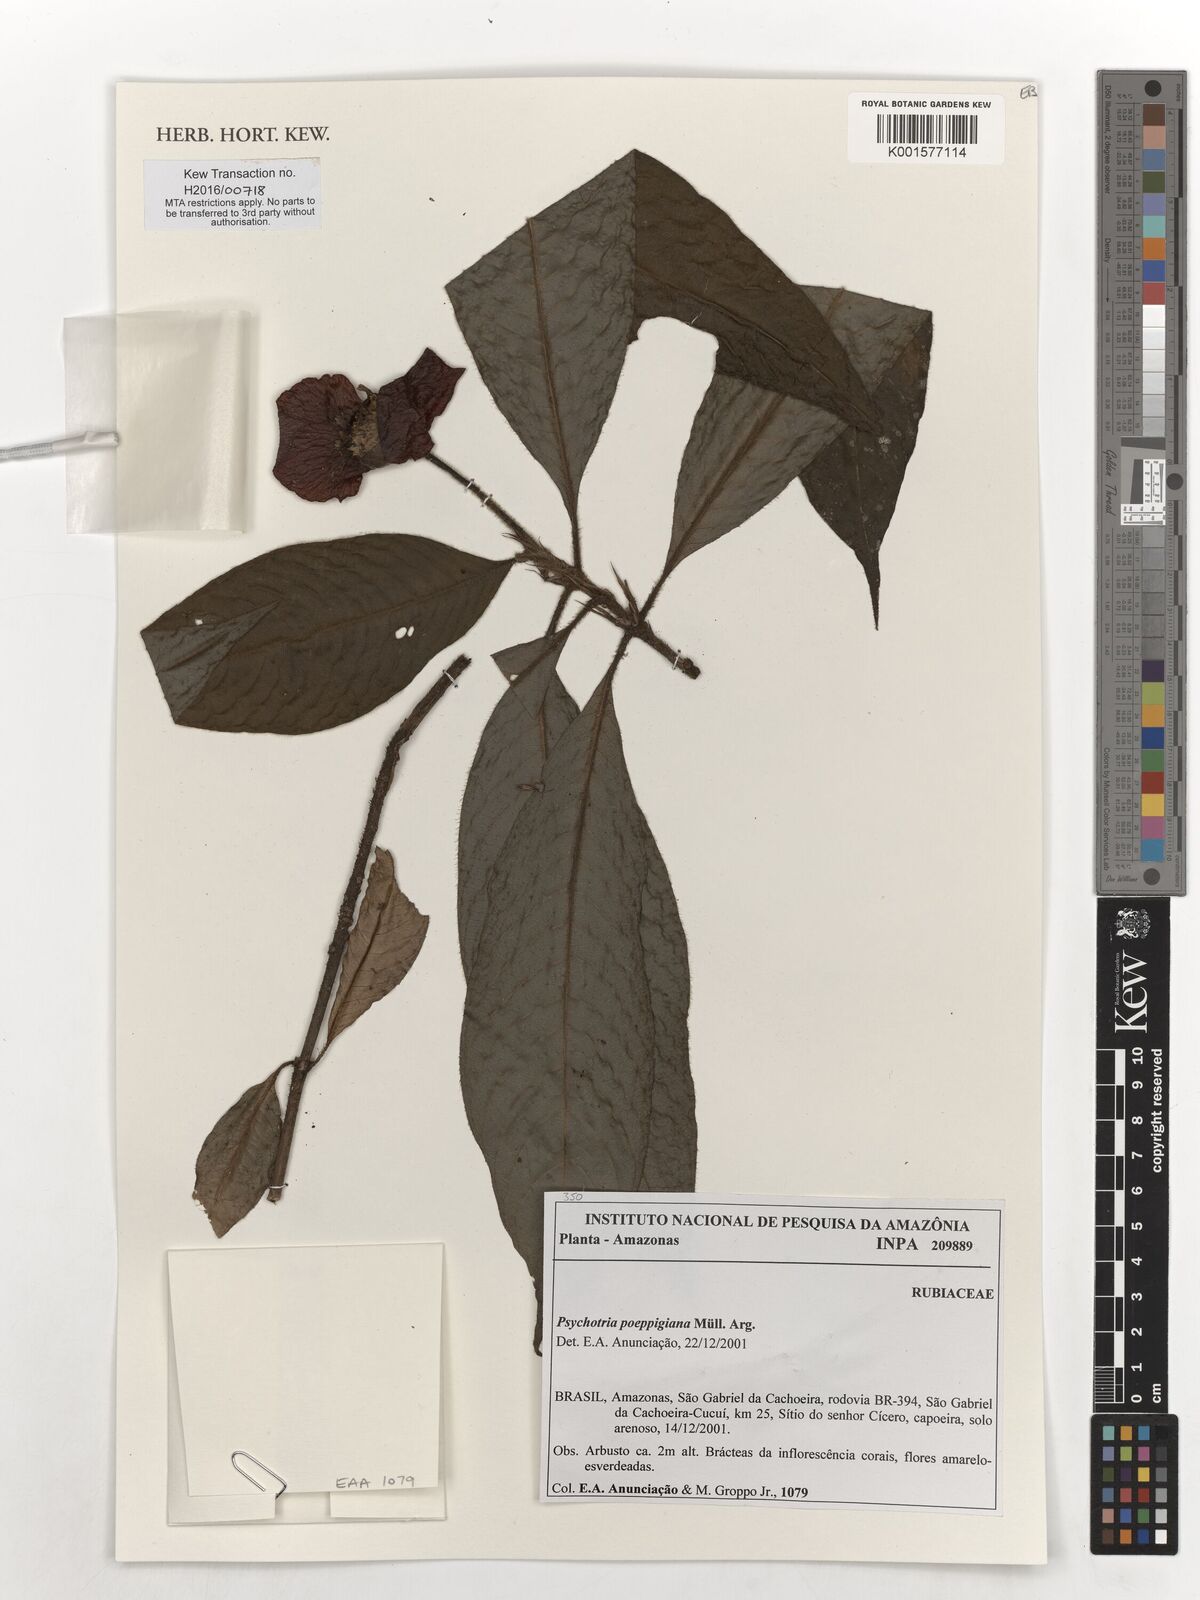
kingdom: Plantae
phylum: Tracheophyta
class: Magnoliopsida
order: Gentianales
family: Rubiaceae
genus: Palicourea
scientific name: Palicourea tomentosa
